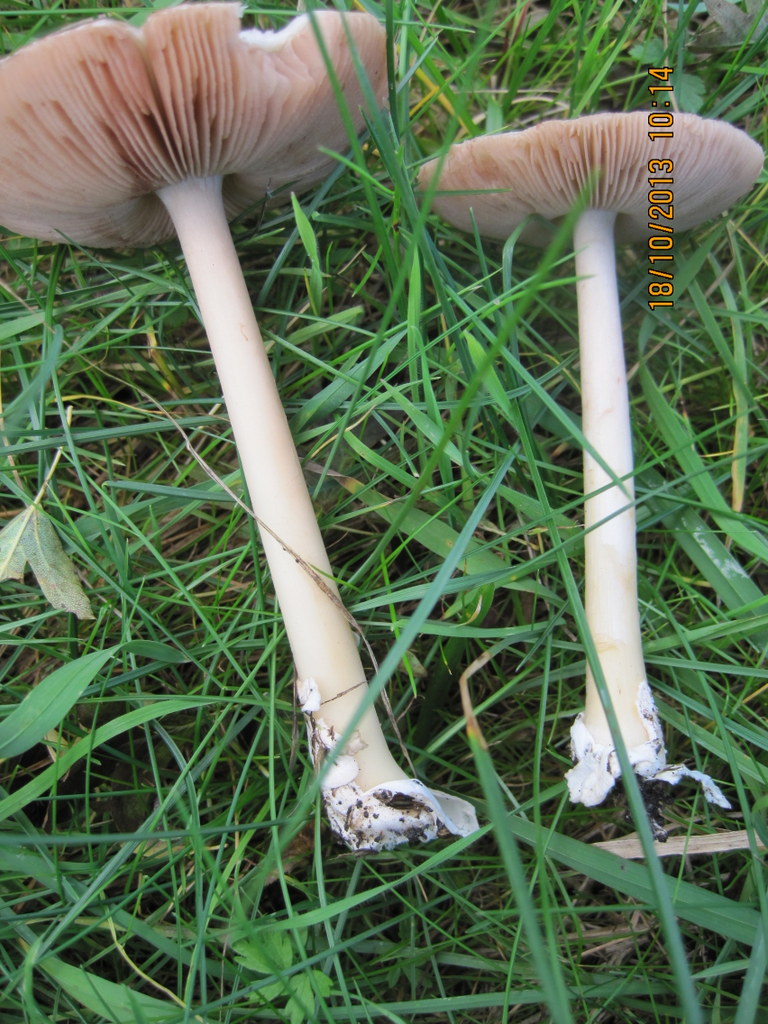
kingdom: Fungi
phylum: Basidiomycota
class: Agaricomycetes
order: Agaricales
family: Pluteaceae
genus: Volvopluteus
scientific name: Volvopluteus gloiocephalus
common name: høj posesvamp
